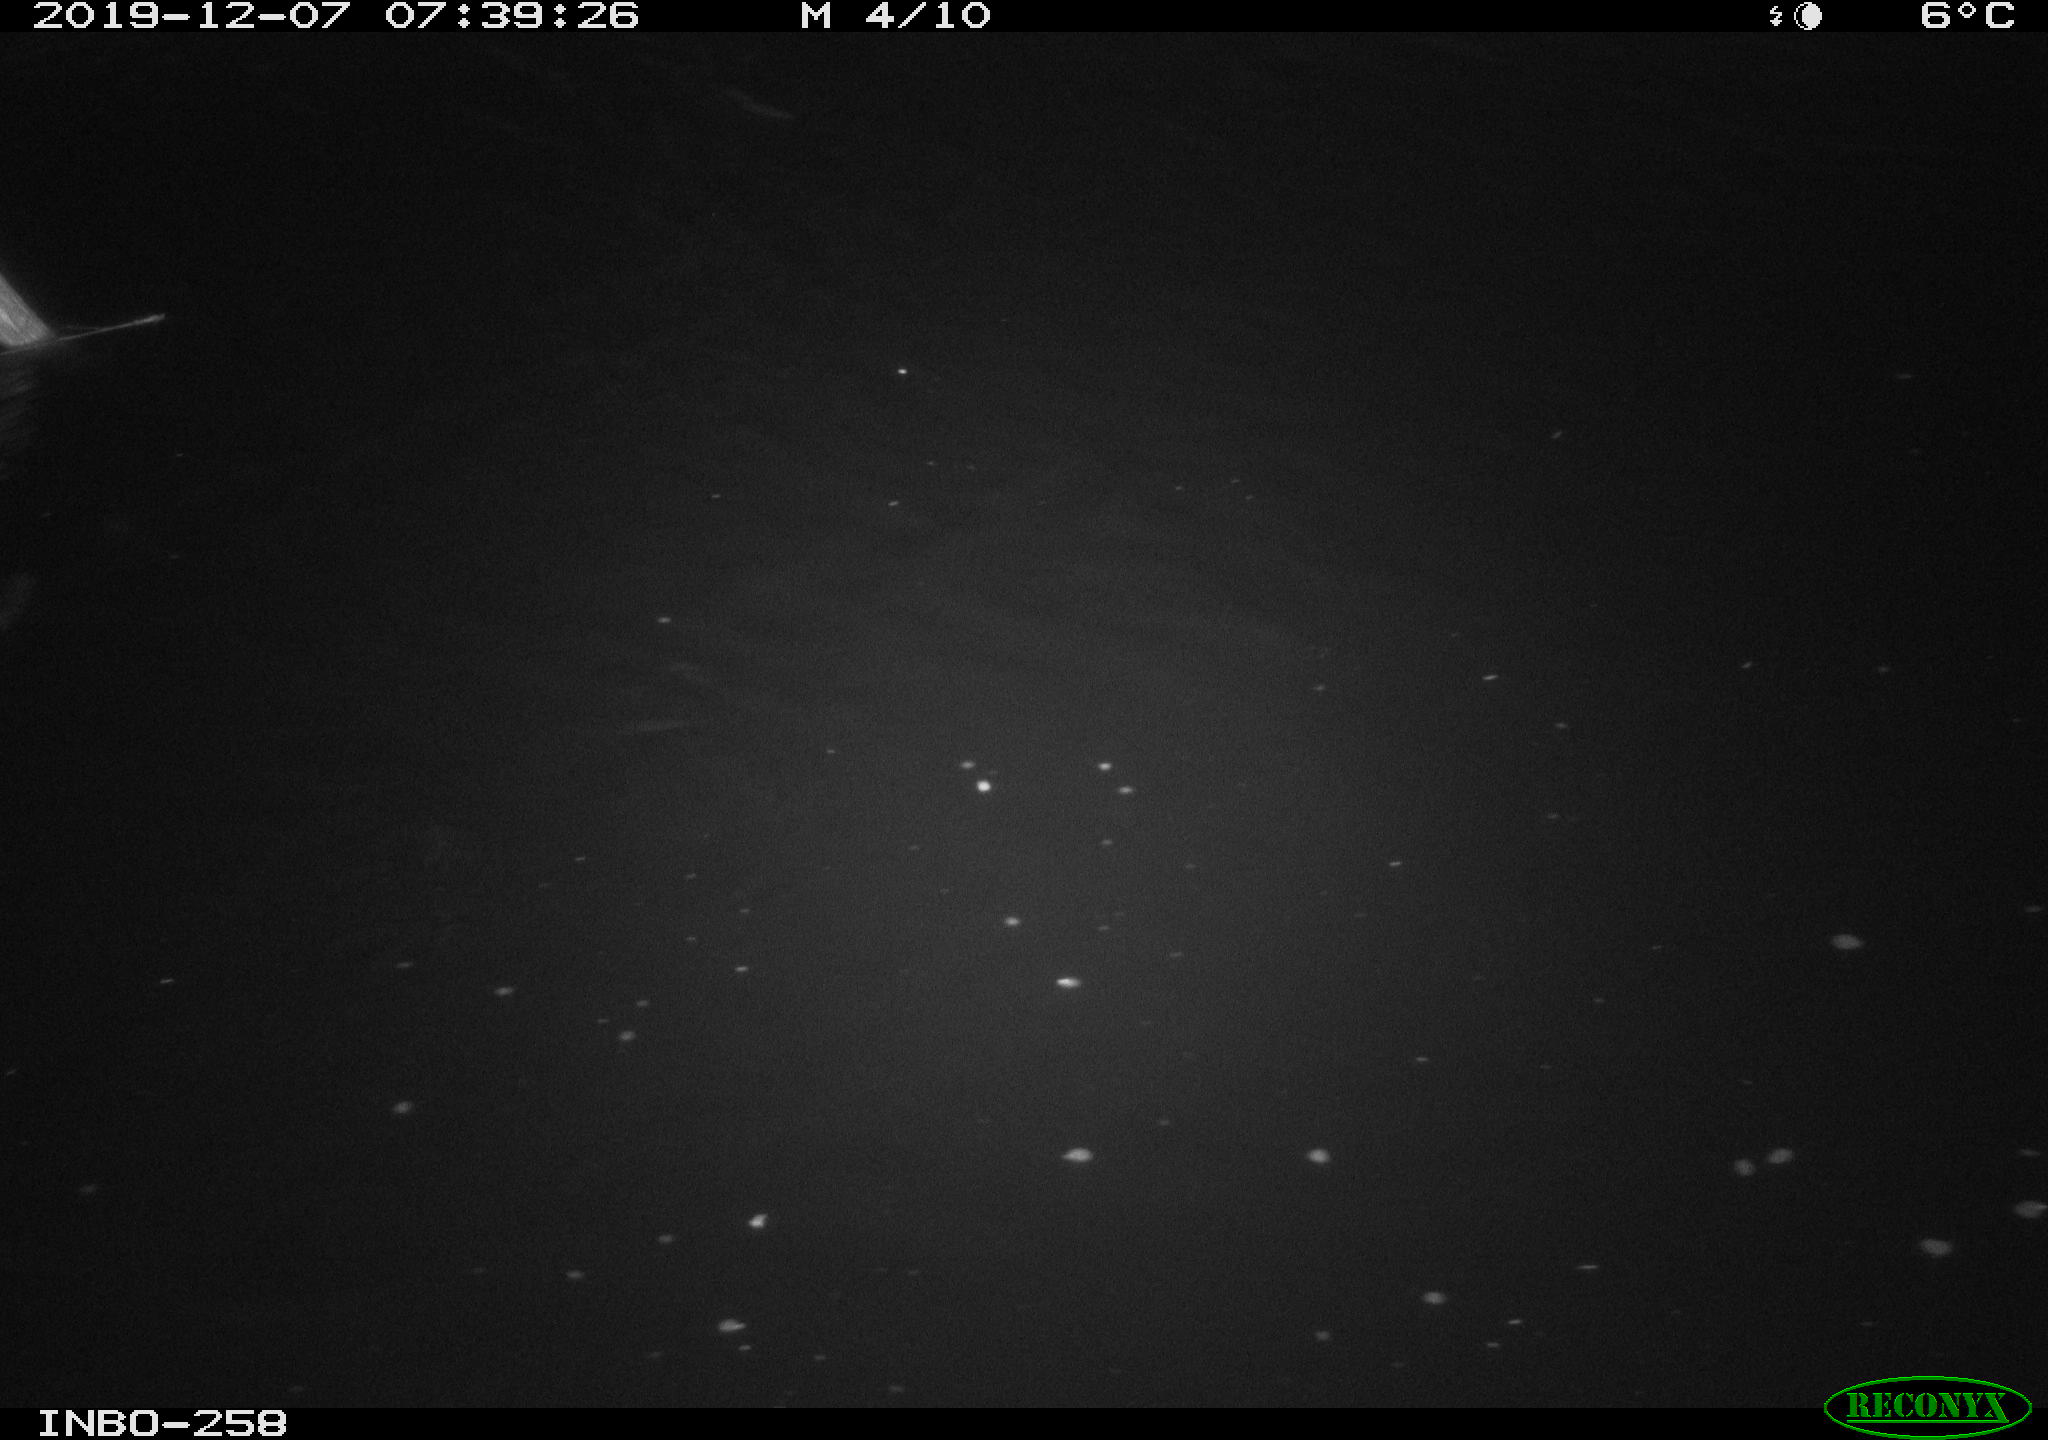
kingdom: Animalia
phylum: Chordata
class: Aves
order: Anseriformes
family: Anatidae
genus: Anas
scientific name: Anas platyrhynchos
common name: Mallard
